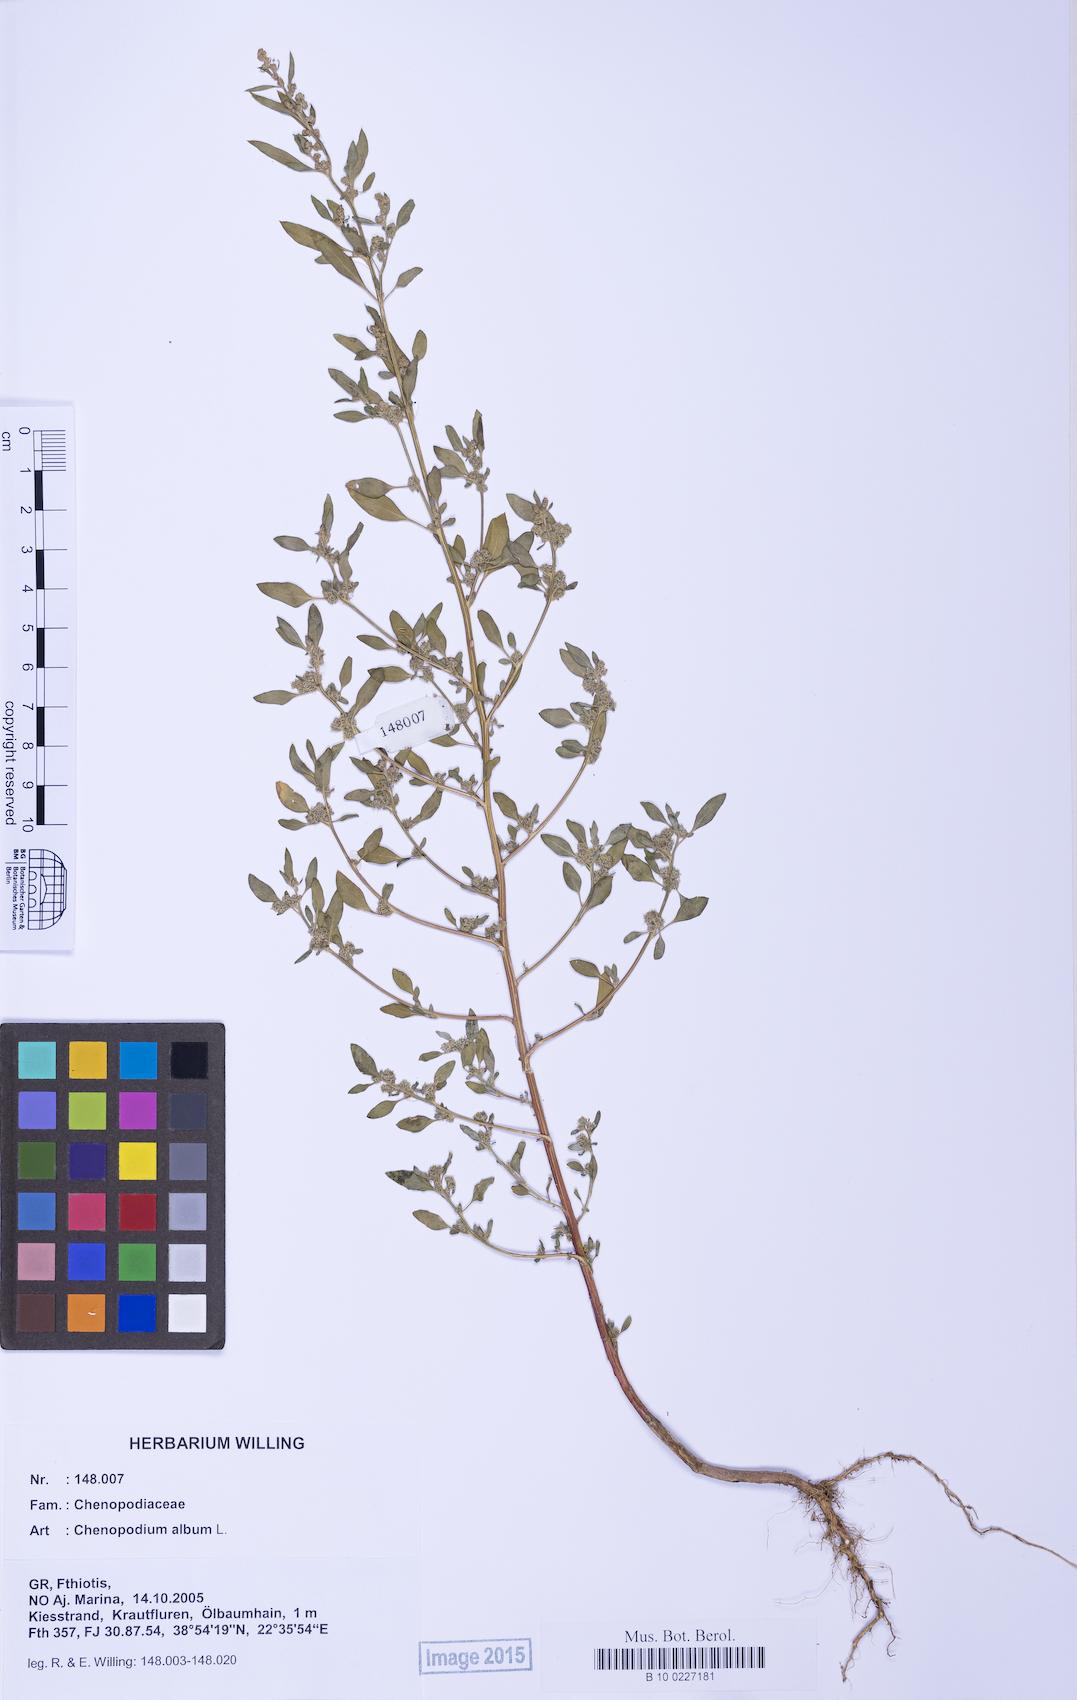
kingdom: Plantae
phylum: Tracheophyta
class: Magnoliopsida
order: Caryophyllales
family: Amaranthaceae
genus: Chenopodium
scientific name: Chenopodium album
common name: Fat-hen
